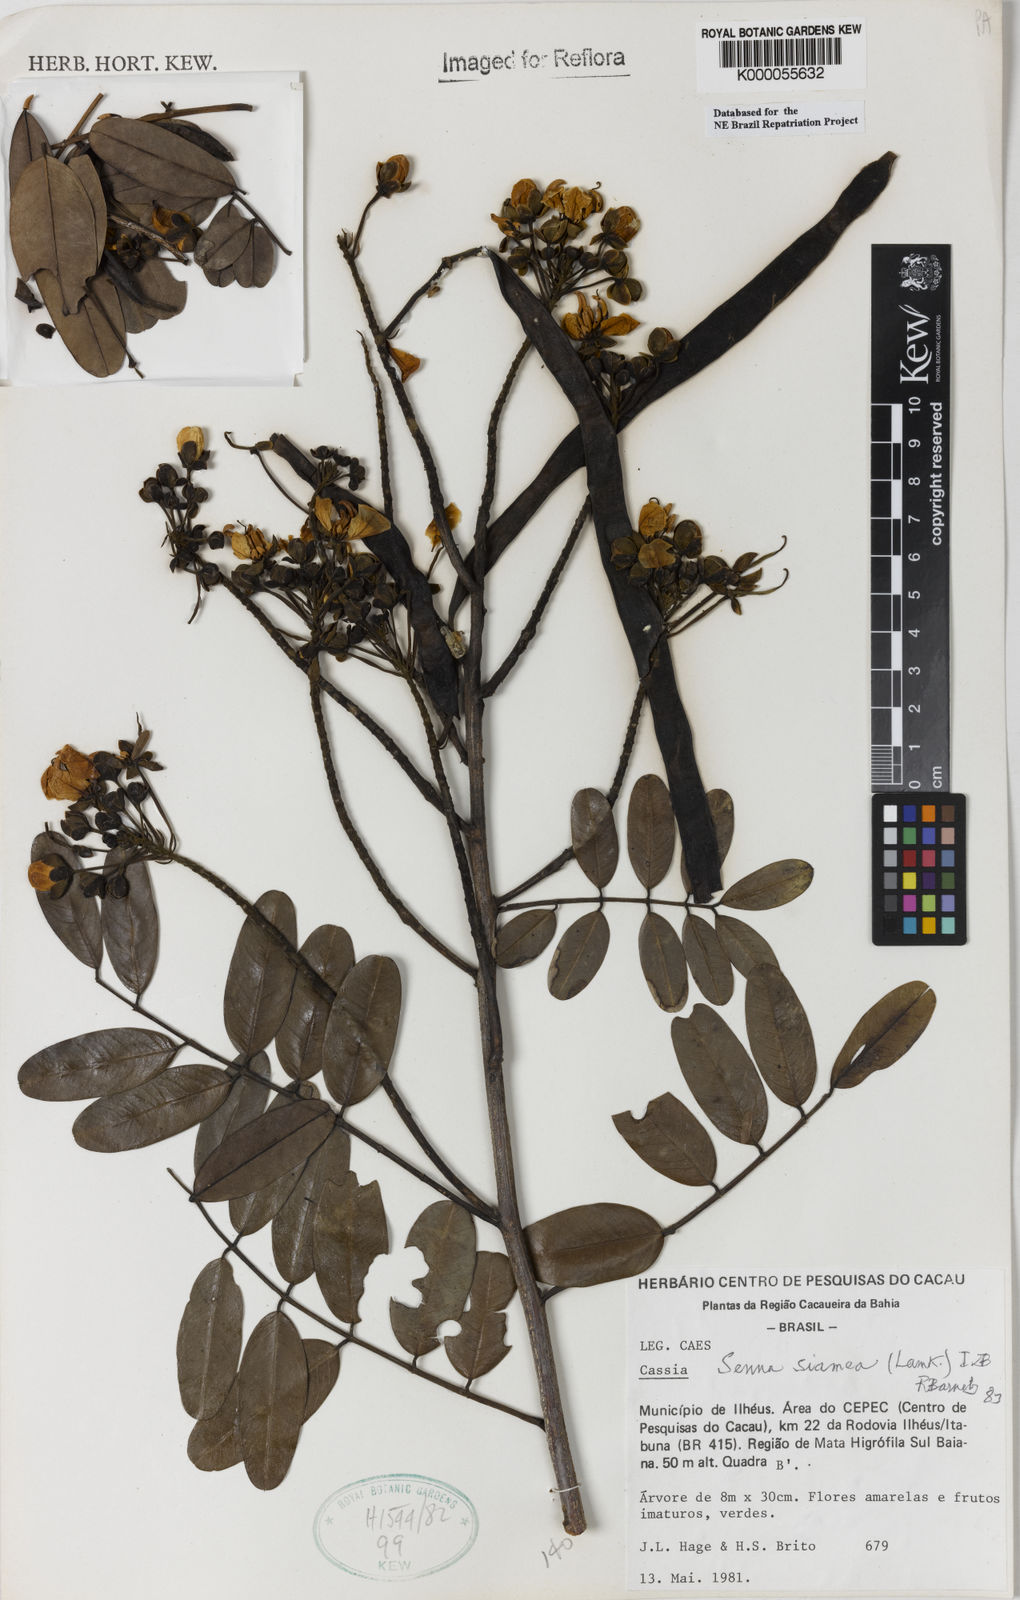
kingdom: Plantae
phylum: Tracheophyta
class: Magnoliopsida
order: Fabales
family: Fabaceae
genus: Senna
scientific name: Senna siamea
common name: Siamese cassia
